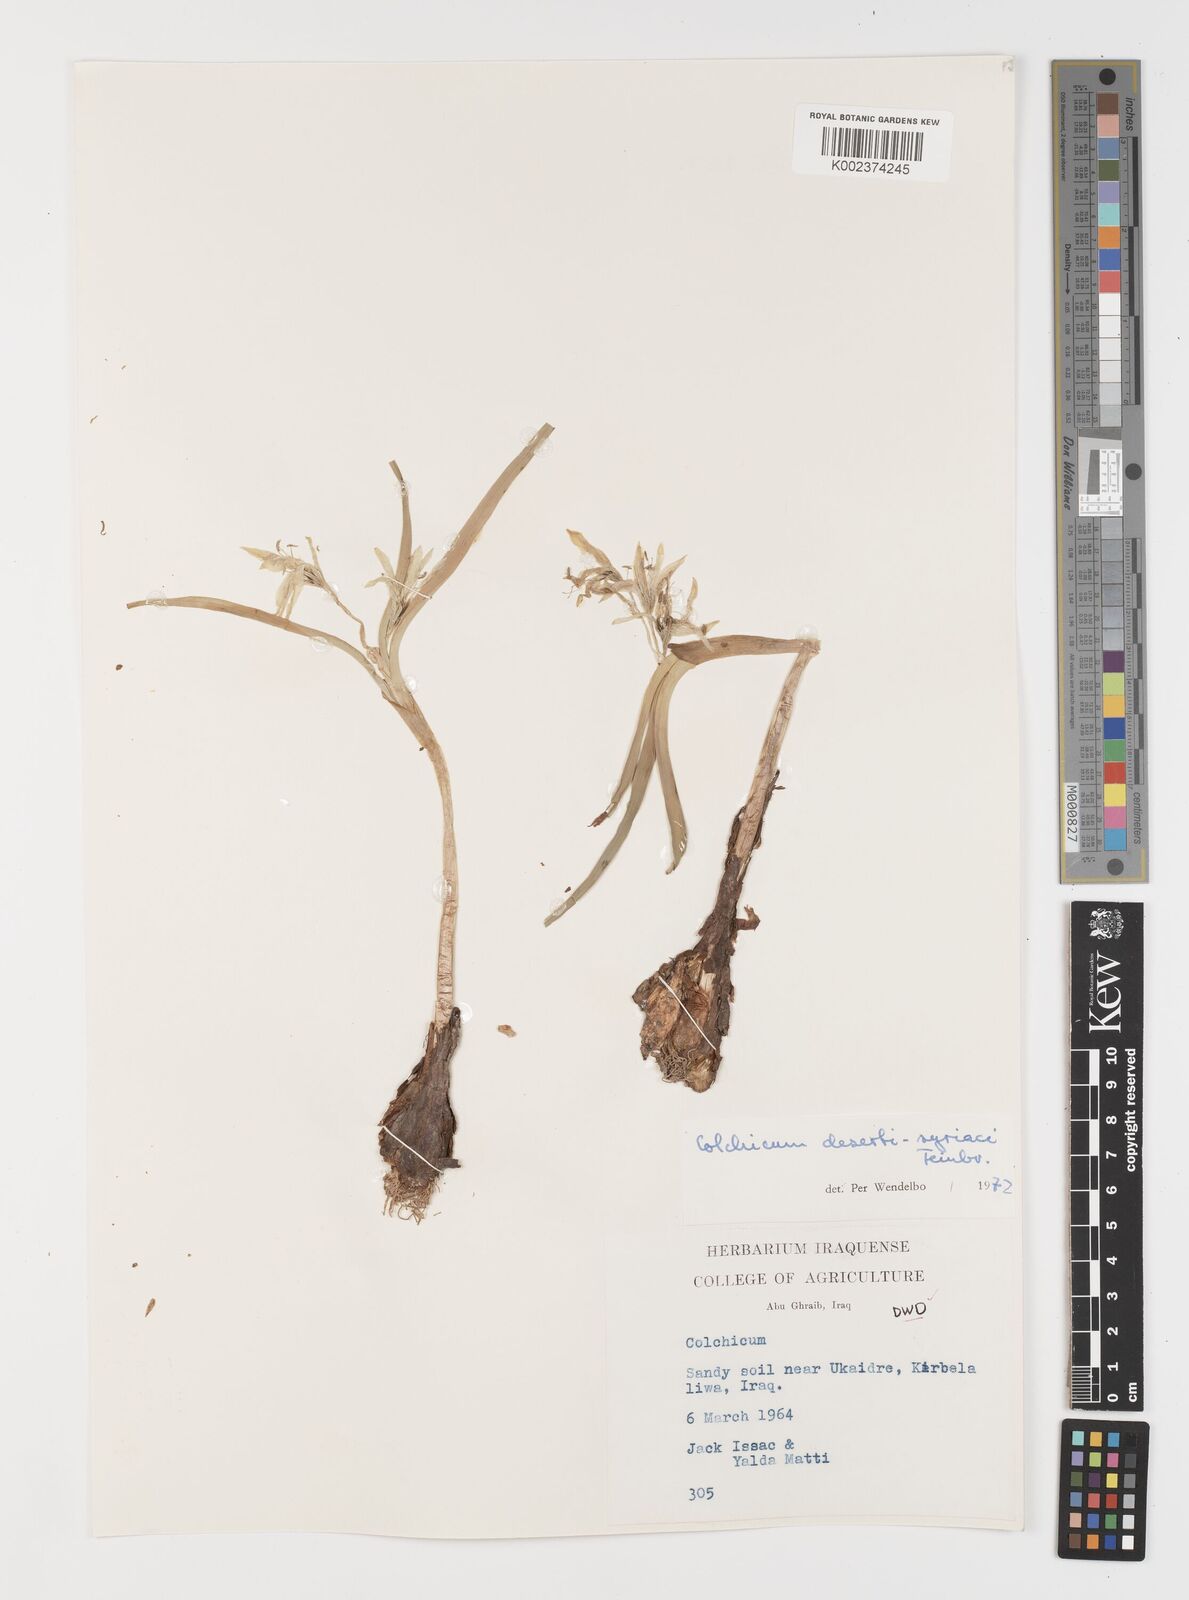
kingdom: Plantae
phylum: Tracheophyta
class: Liliopsida
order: Liliales
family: Colchicaceae
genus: Colchicum
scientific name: Colchicum schimperi
